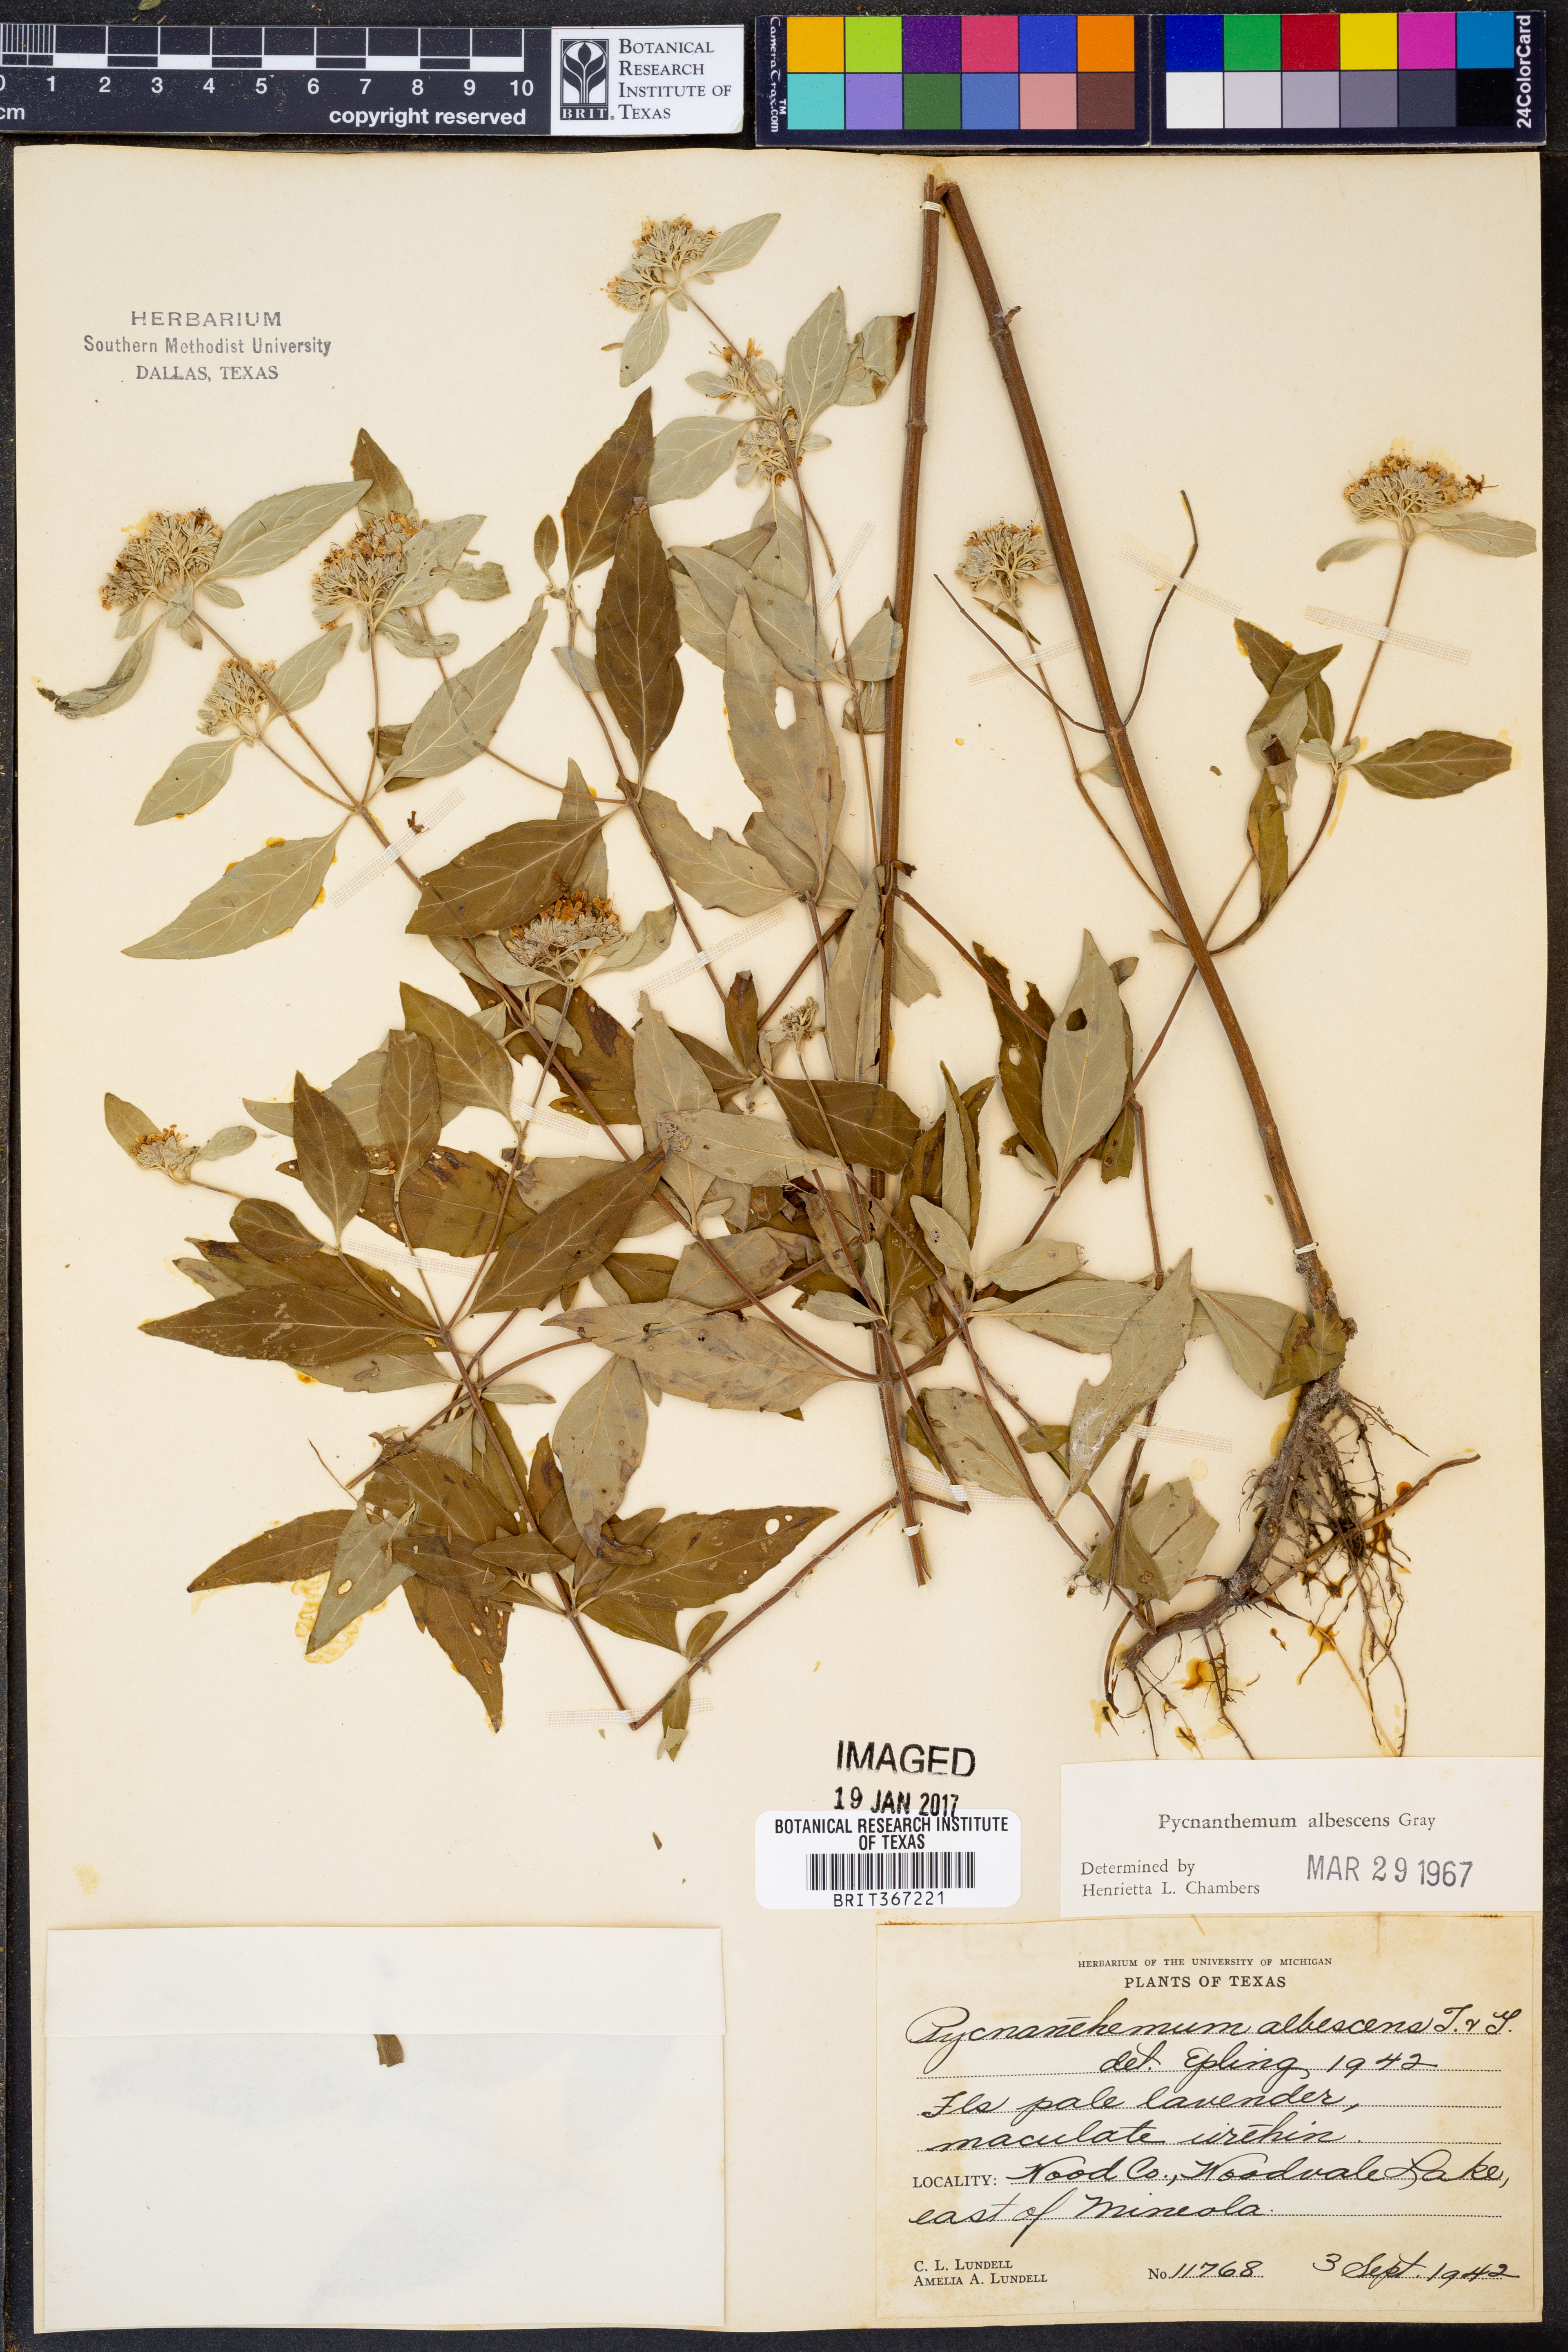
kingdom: Plantae
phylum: Tracheophyta
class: Magnoliopsida
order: Lamiales
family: Lamiaceae
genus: Pycnanthemum
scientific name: Pycnanthemum albescens
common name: White-leaf mountain-mint
